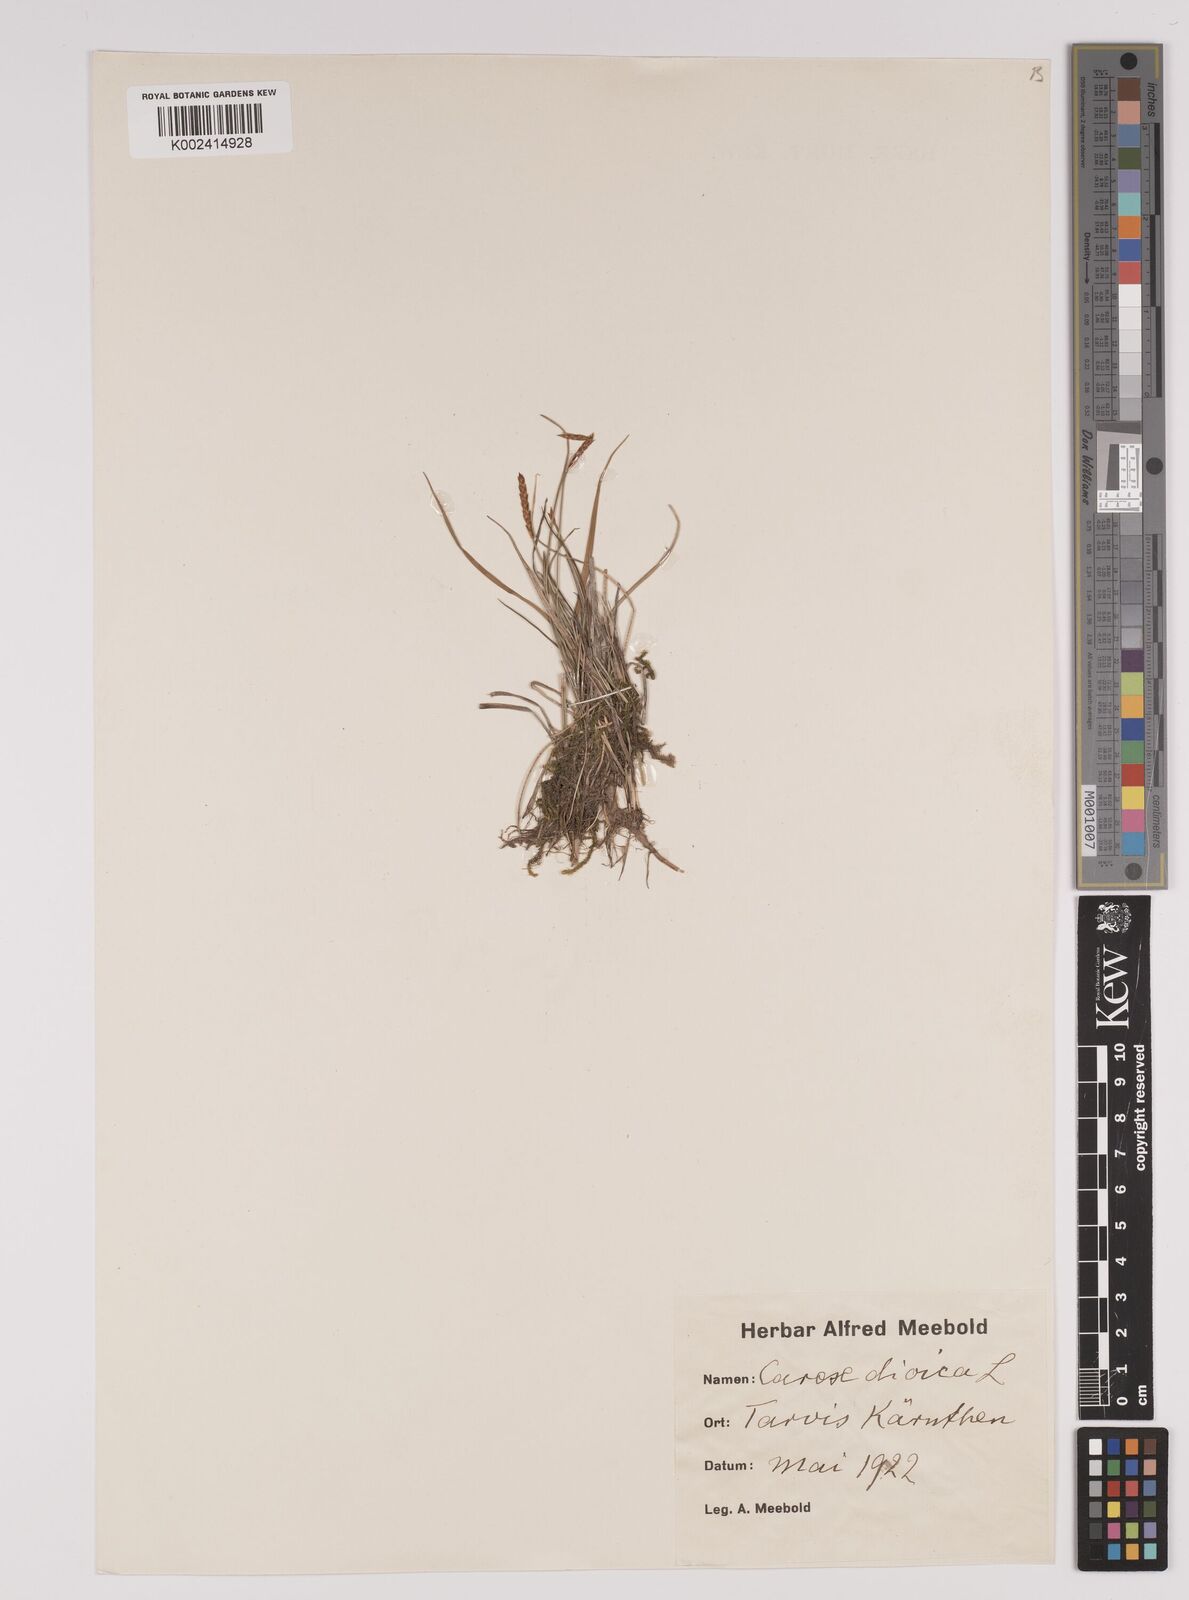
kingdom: Plantae
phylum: Tracheophyta
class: Liliopsida
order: Poales
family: Cyperaceae
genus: Carex
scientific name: Carex dioica
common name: Dioecious sedge
